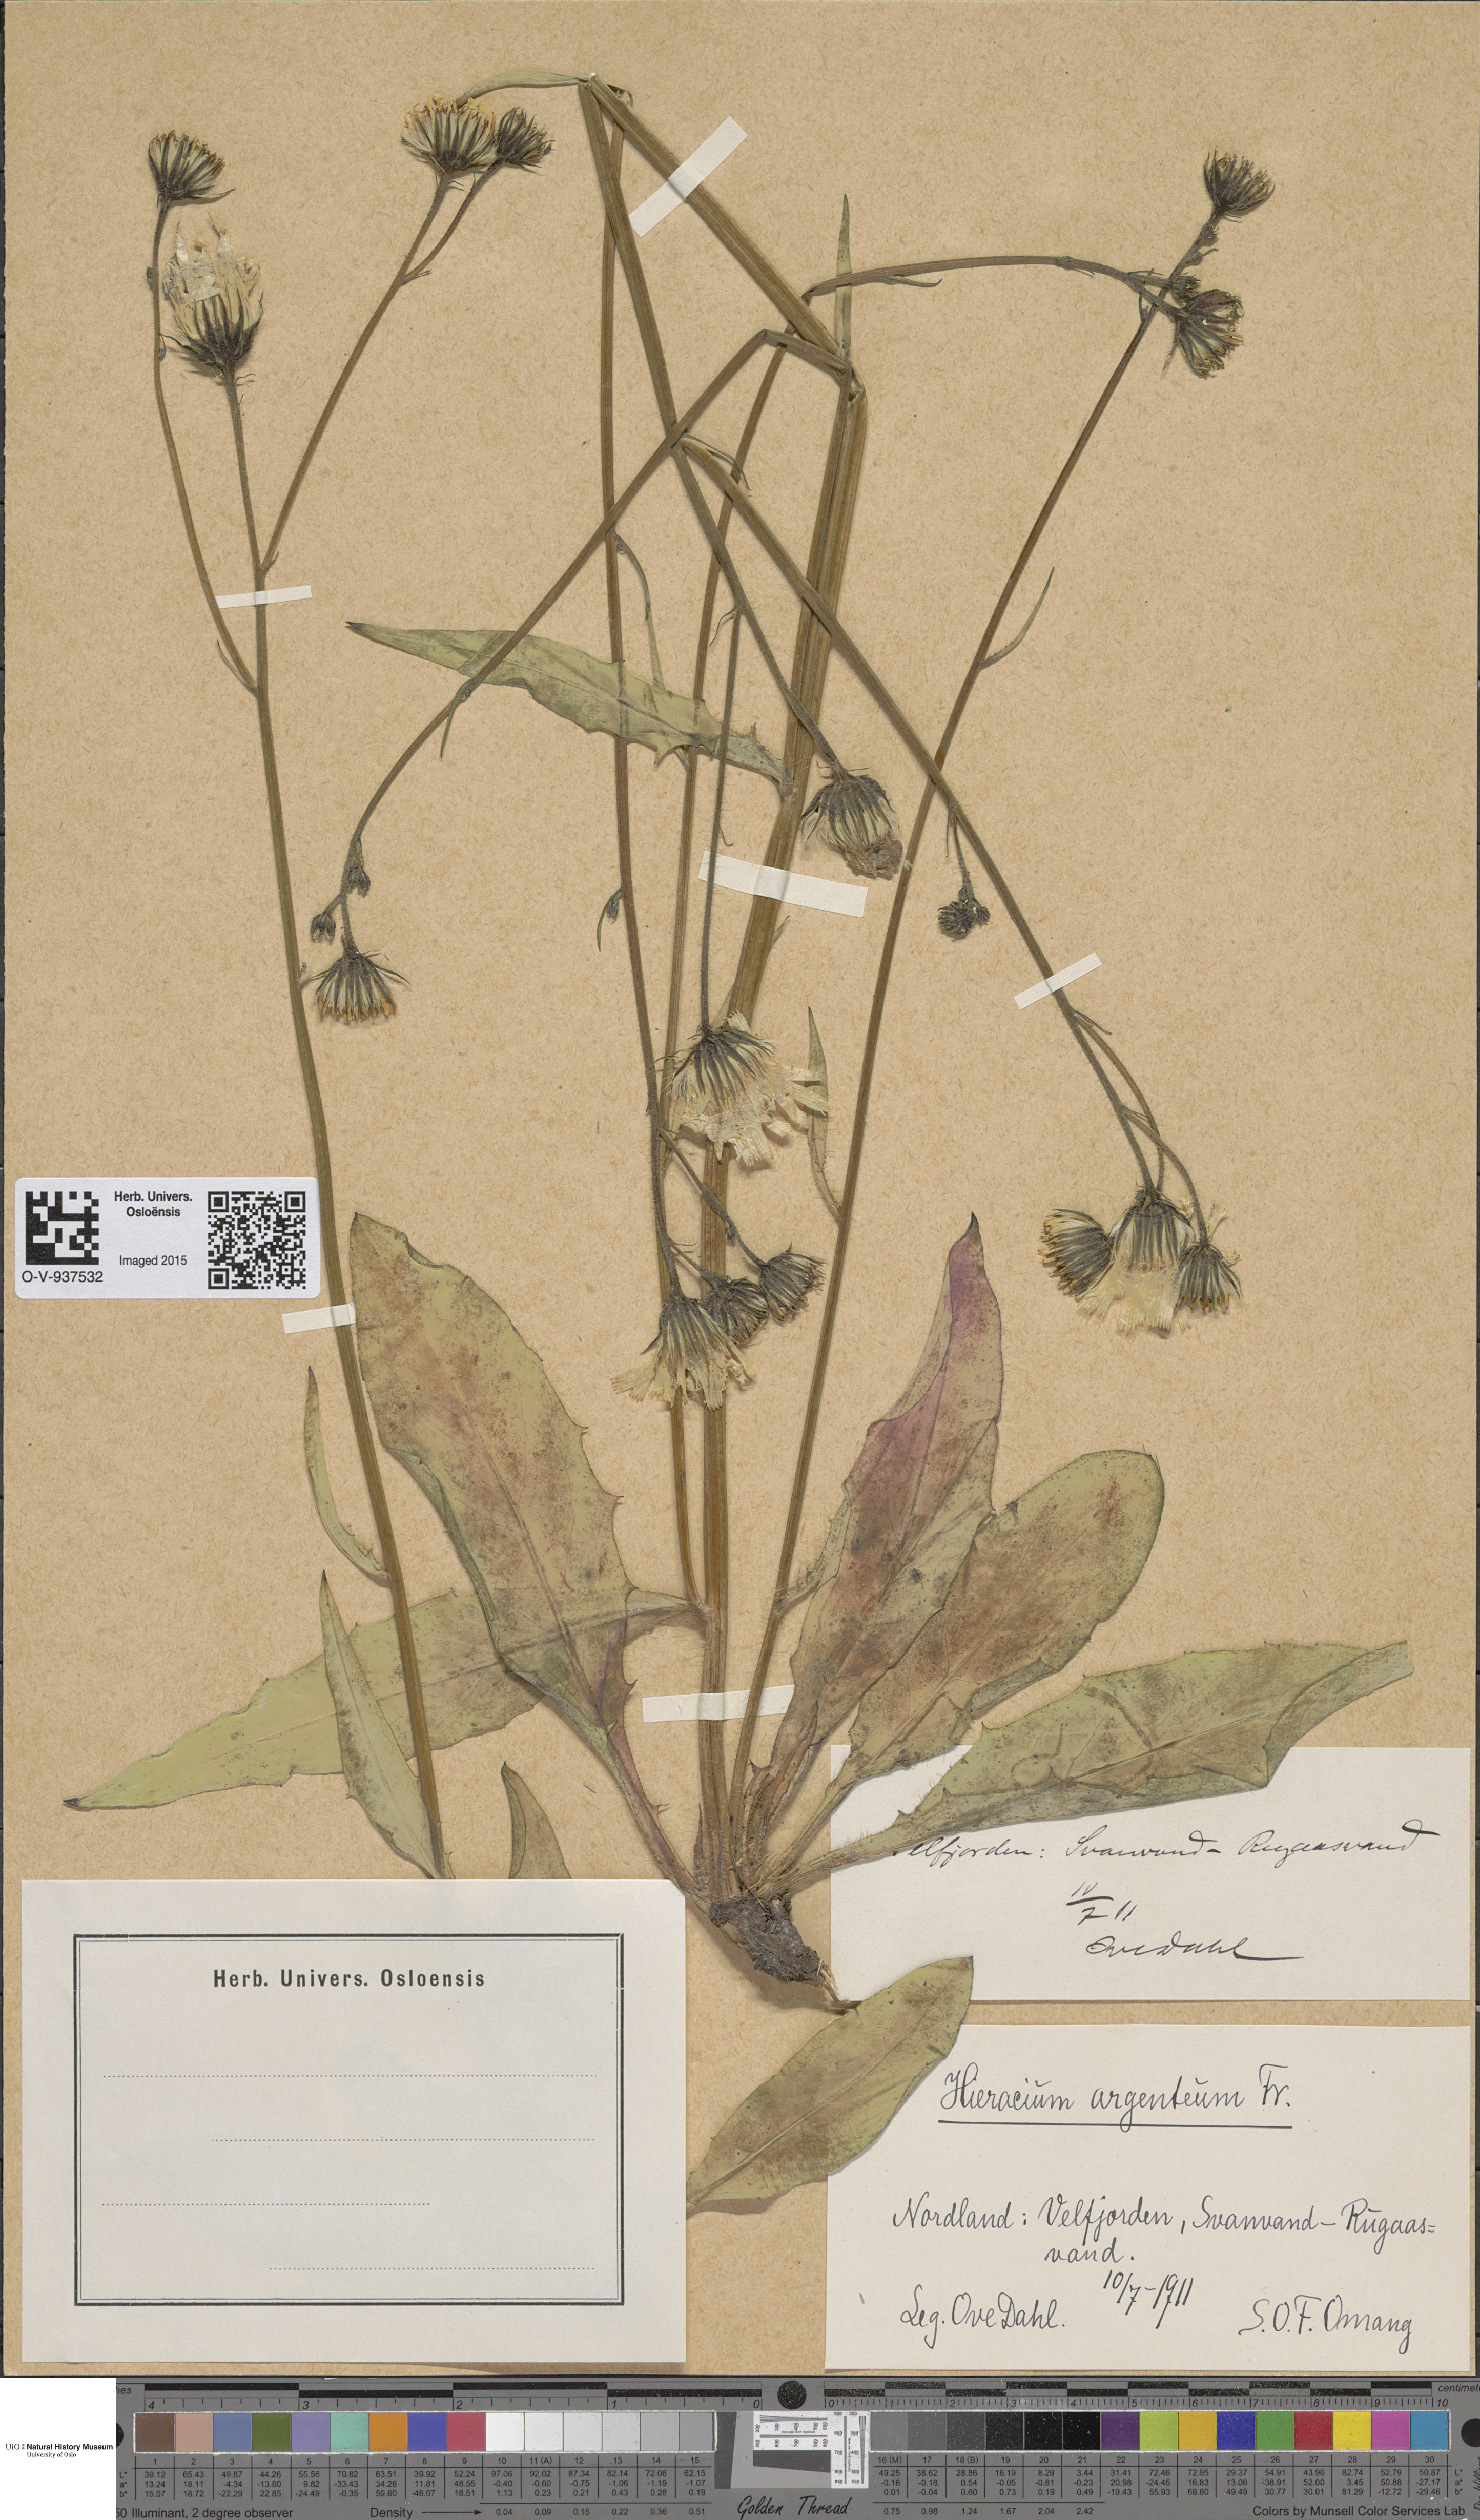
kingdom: Plantae
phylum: Tracheophyta
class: Magnoliopsida
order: Asterales
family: Asteraceae
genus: Hieracium
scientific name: Hieracium argenteum
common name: Silver hawkweed
